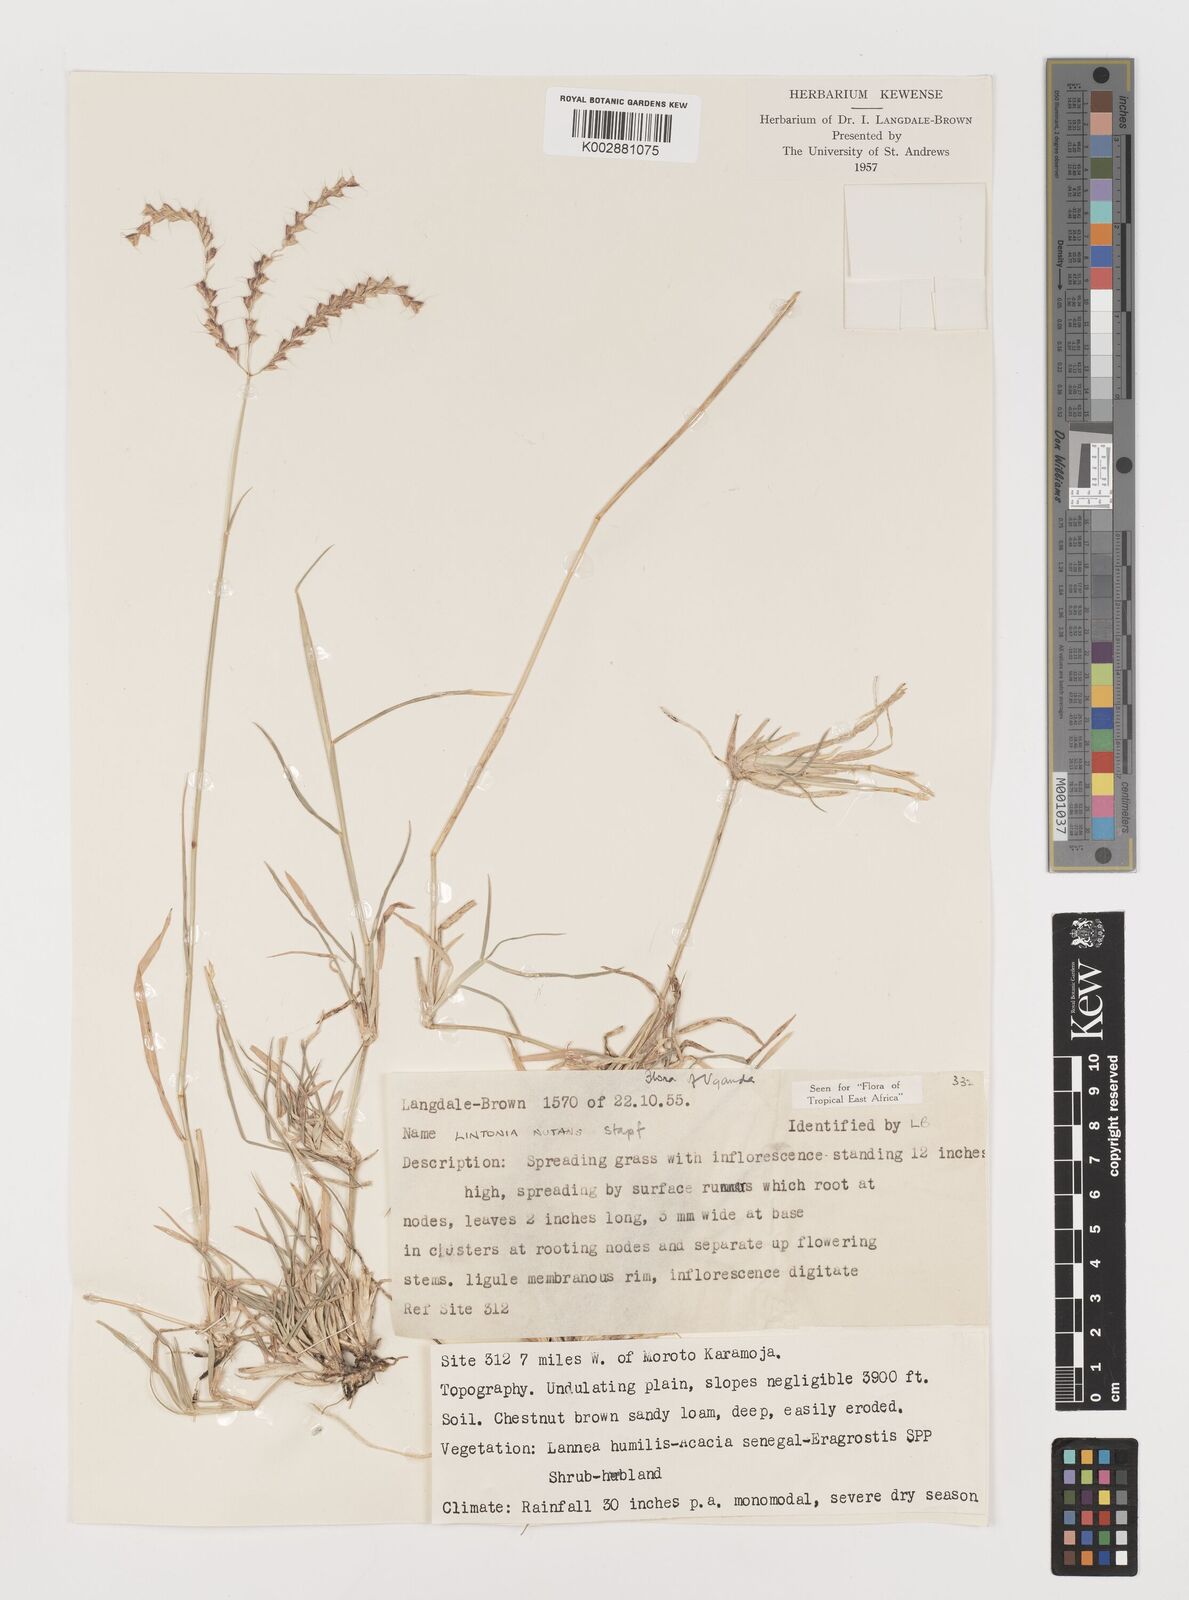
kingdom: Plantae
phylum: Tracheophyta
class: Liliopsida
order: Poales
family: Poaceae
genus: Chloris
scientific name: Chloris nutans
